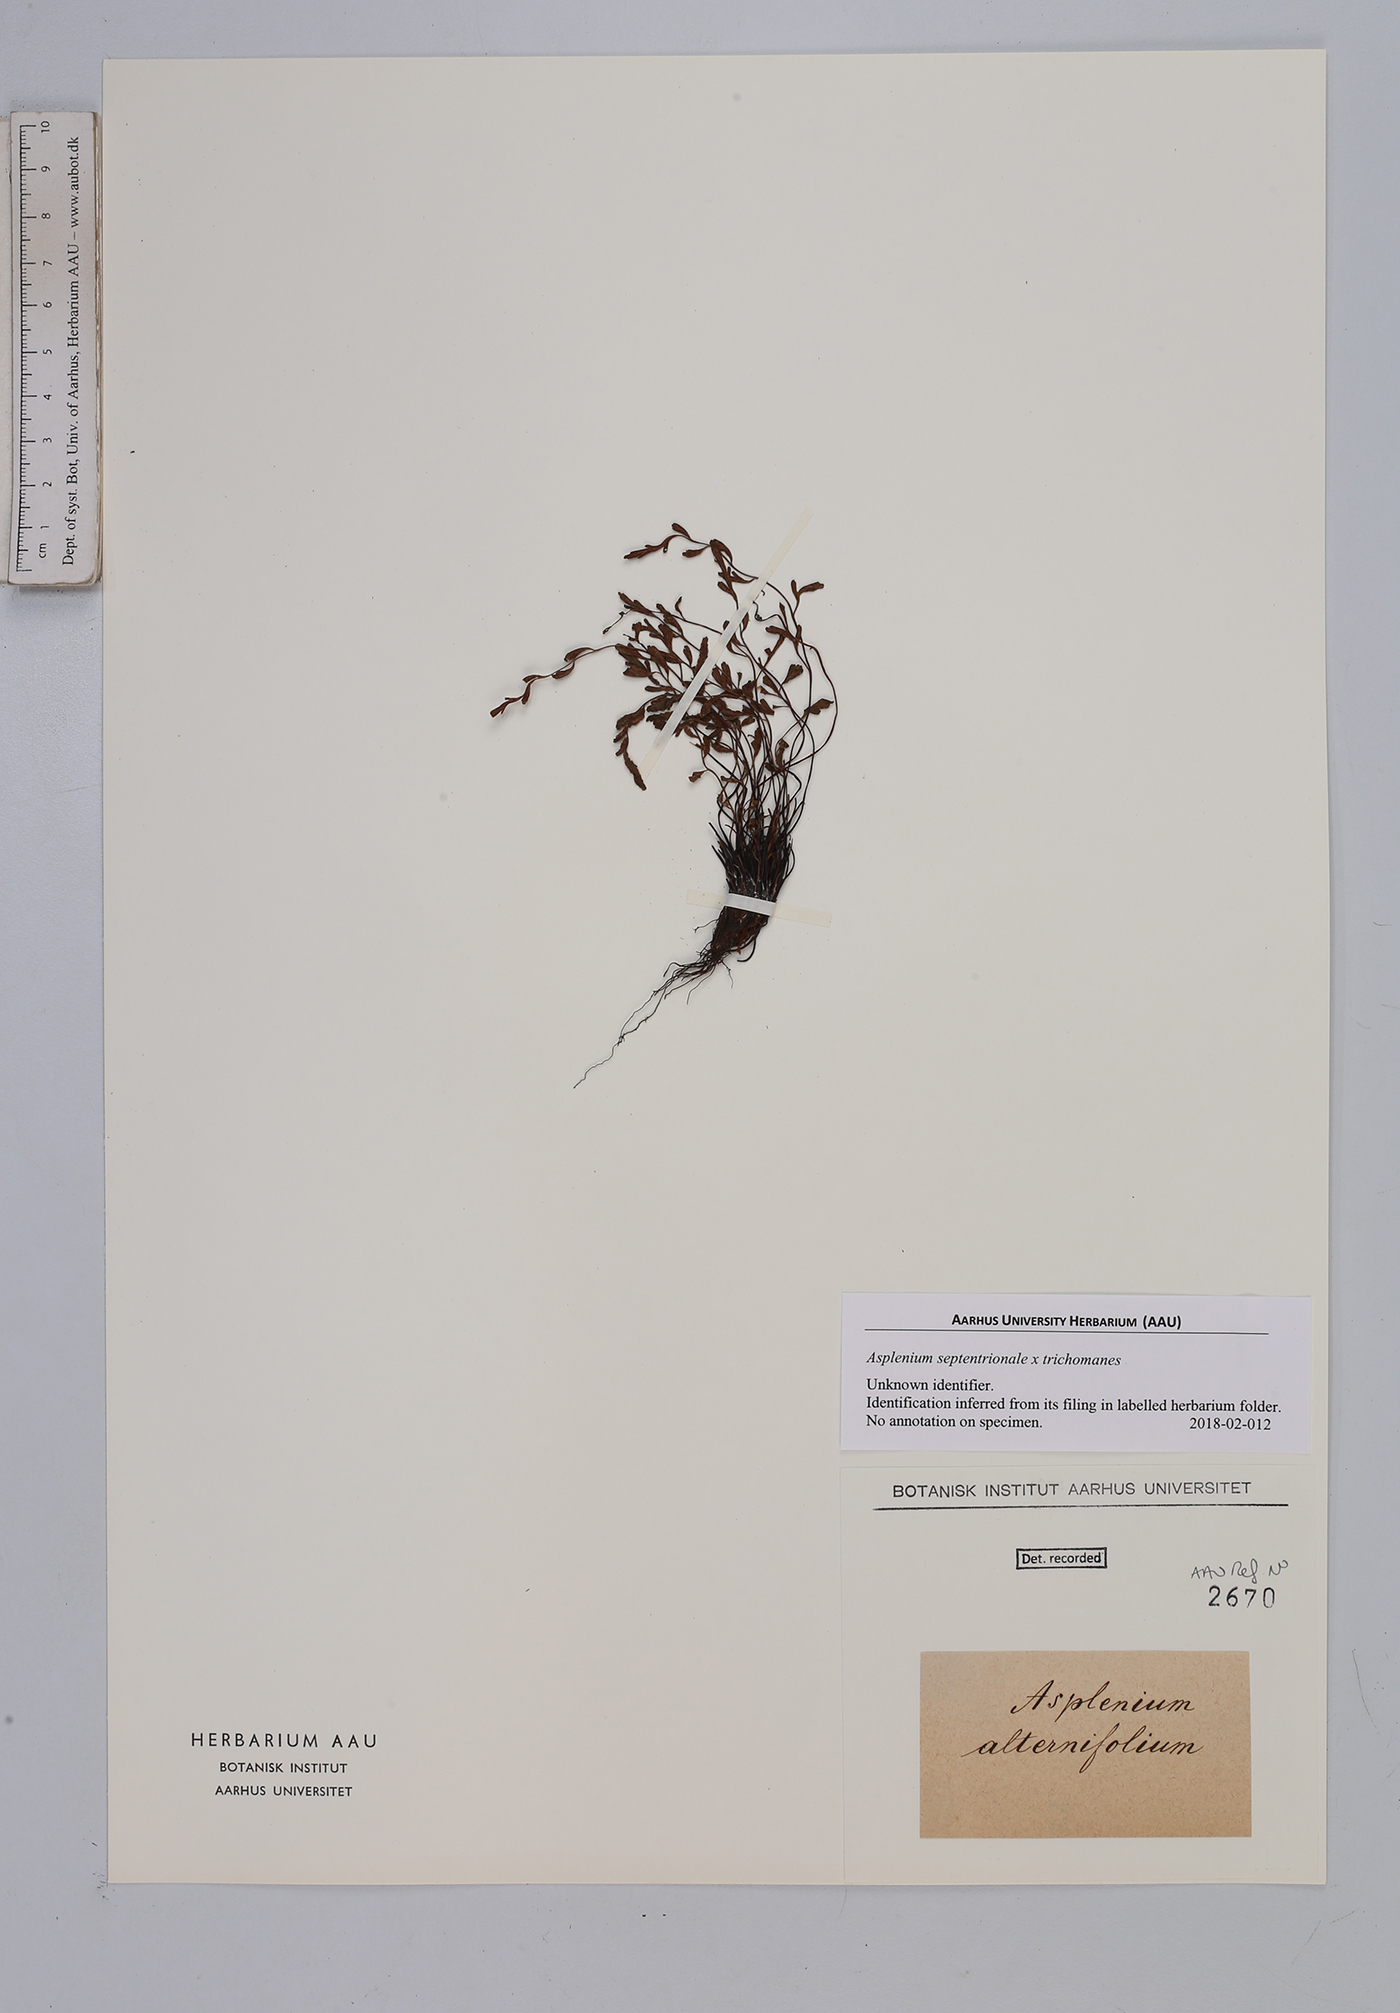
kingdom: Plantae
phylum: Tracheophyta
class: Polypodiopsida
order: Polypodiales
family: Aspleniaceae
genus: Asplenium
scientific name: Asplenium
